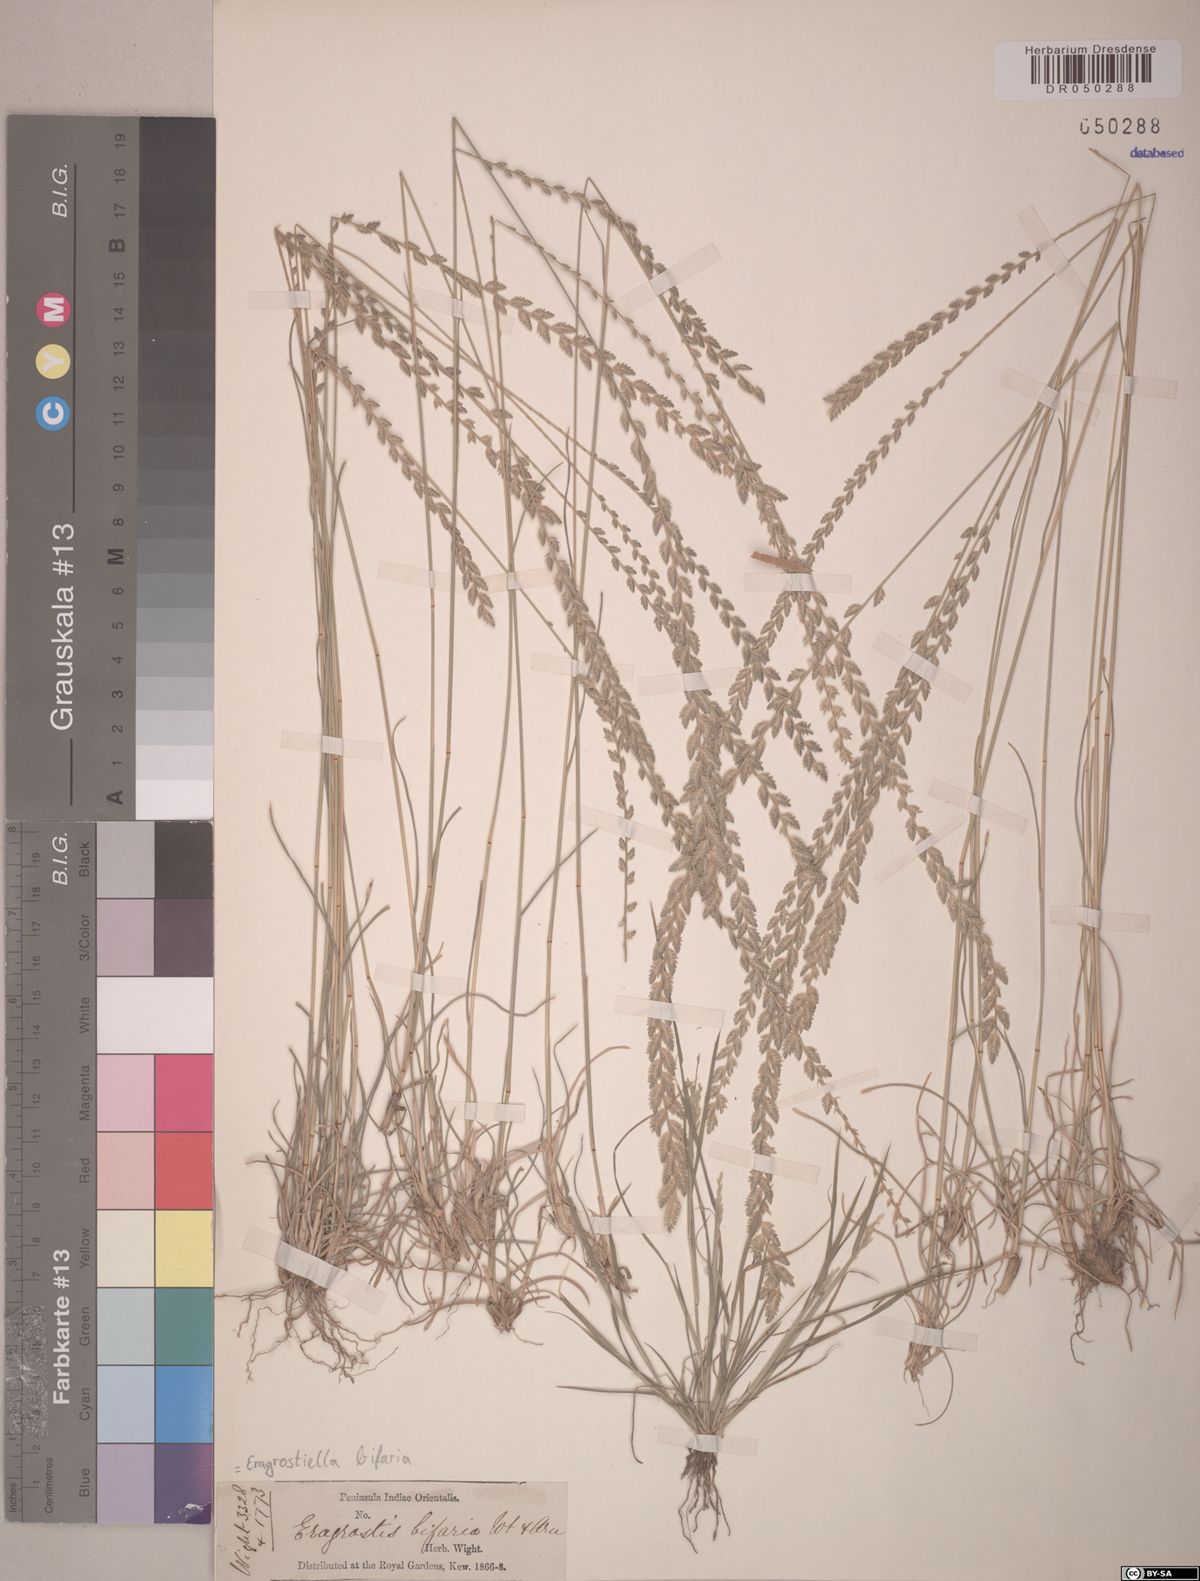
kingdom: Plantae
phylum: Tracheophyta
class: Liliopsida
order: Poales
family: Poaceae
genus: Eragrostiella
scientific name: Eragrostiella bifaria
